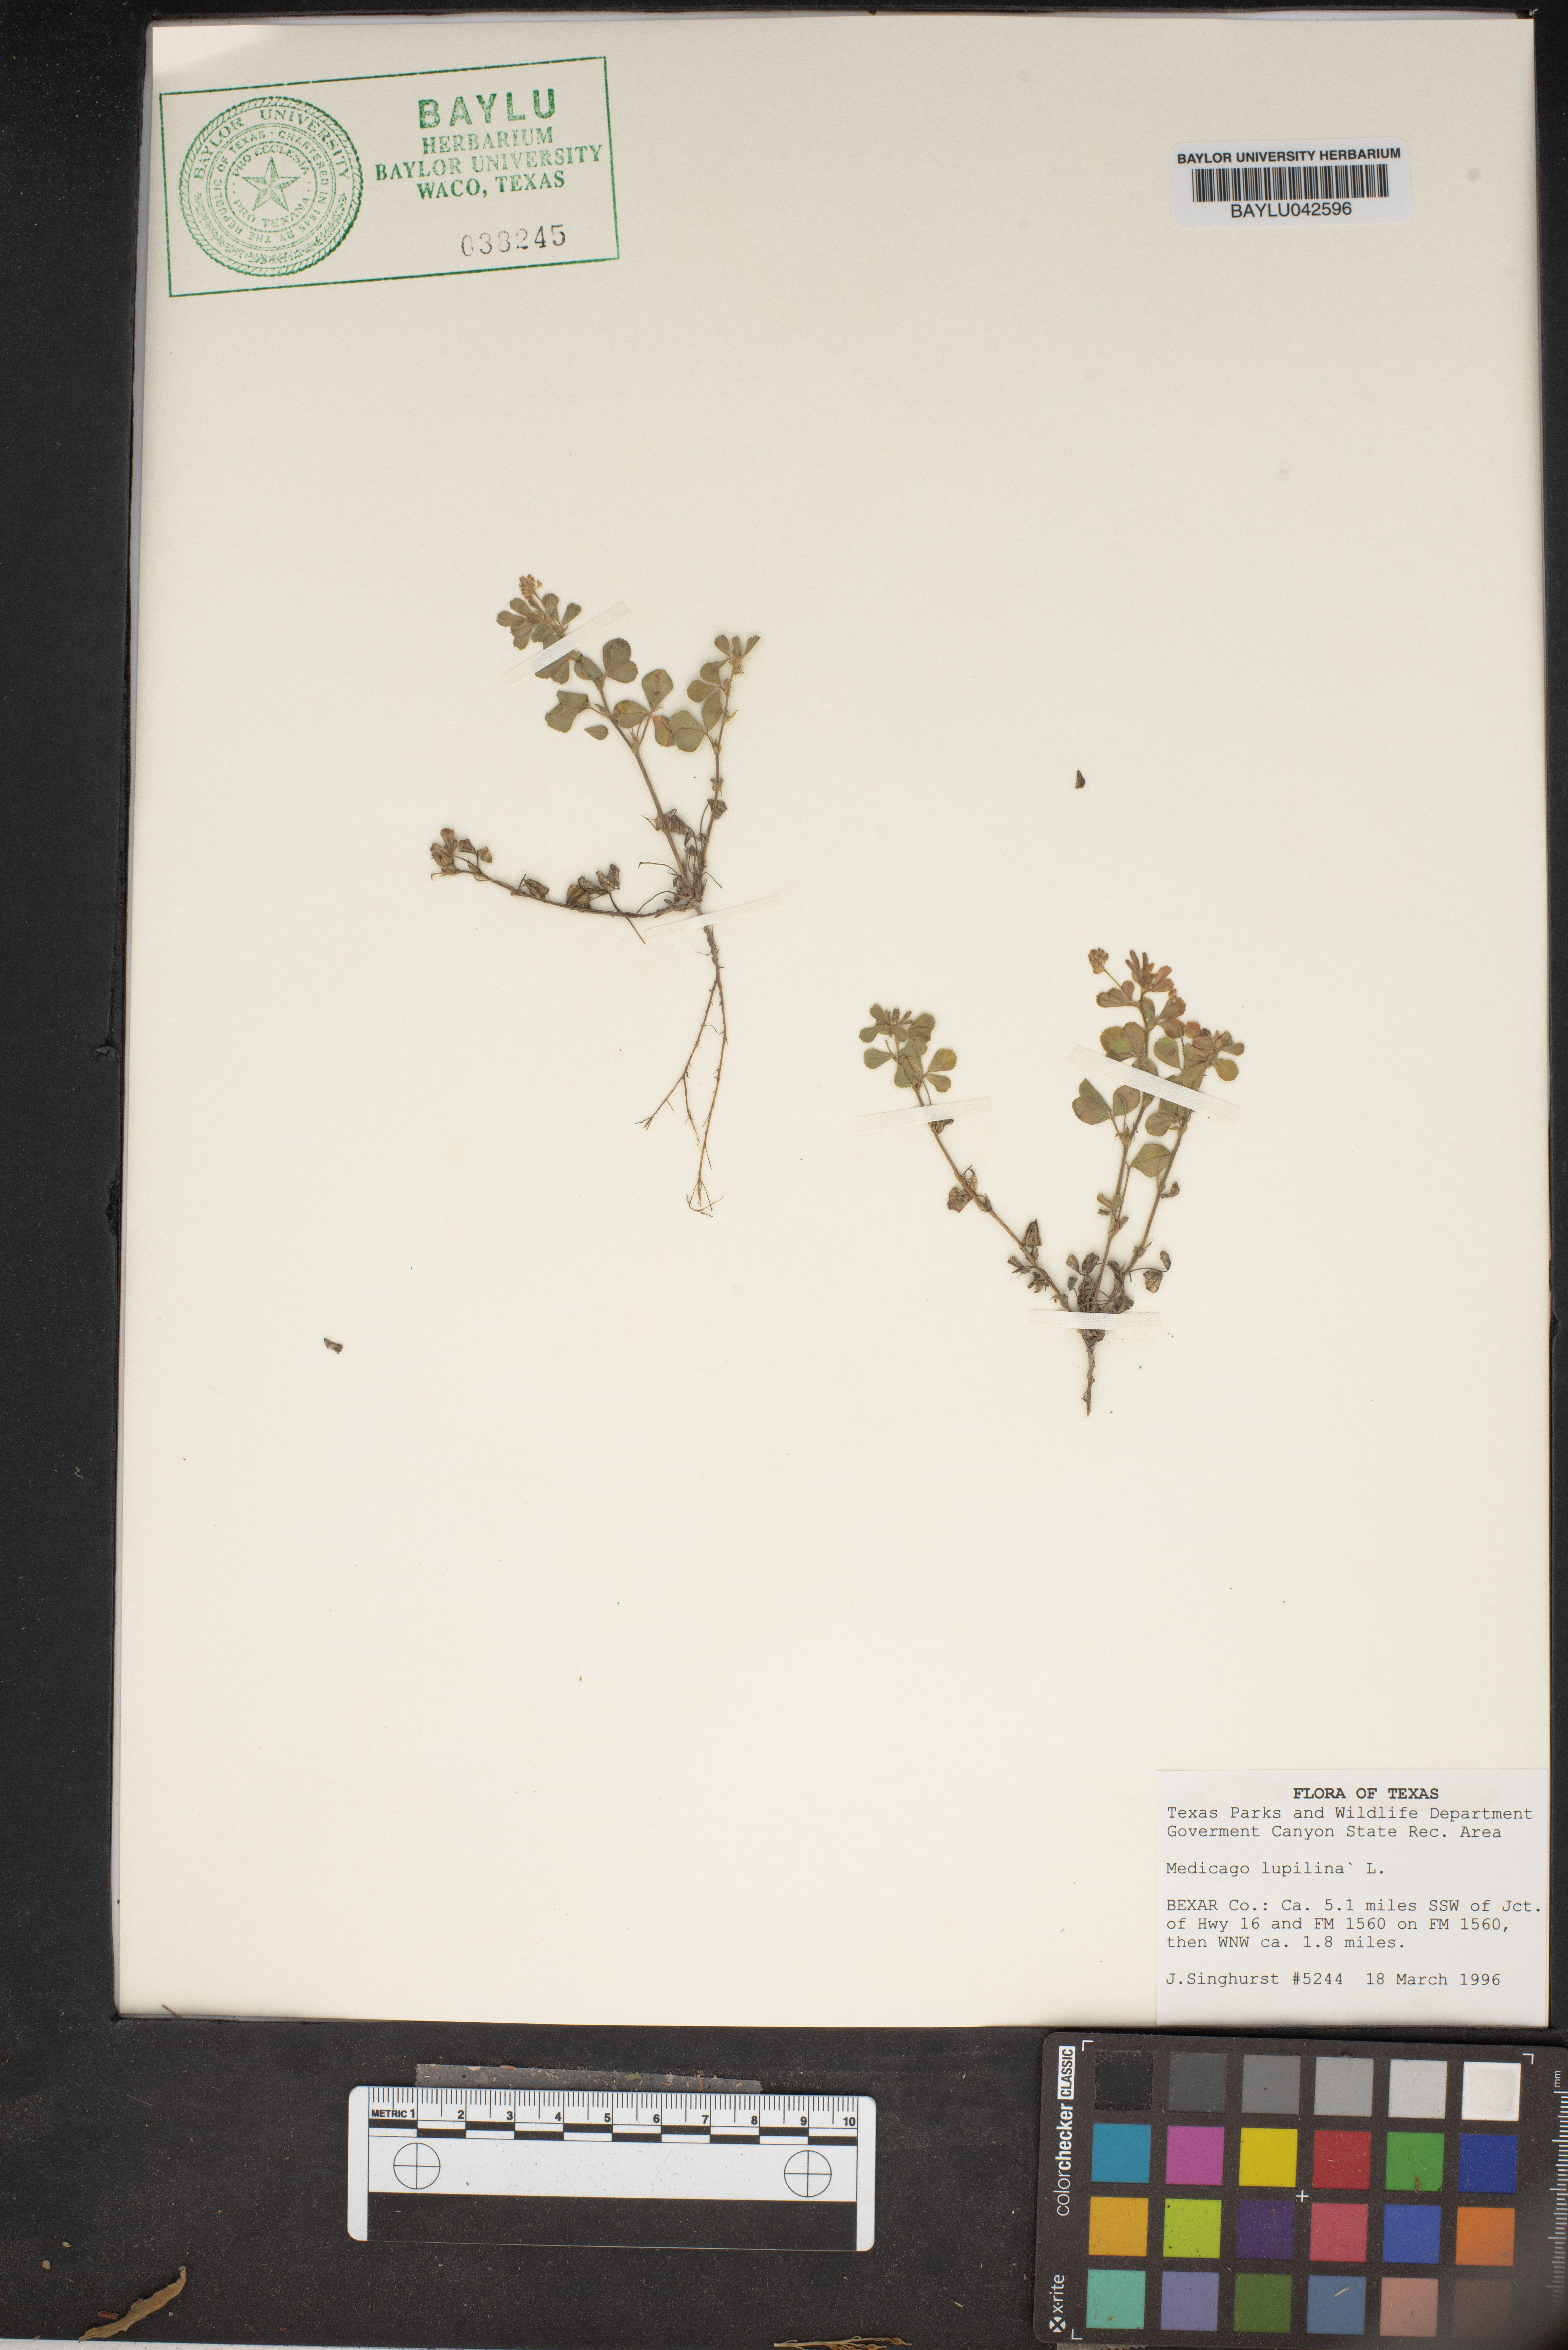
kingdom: Plantae
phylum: Tracheophyta
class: Magnoliopsida
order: Fabales
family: Fabaceae
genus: Medicago
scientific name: Medicago lupulina
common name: Black medick
